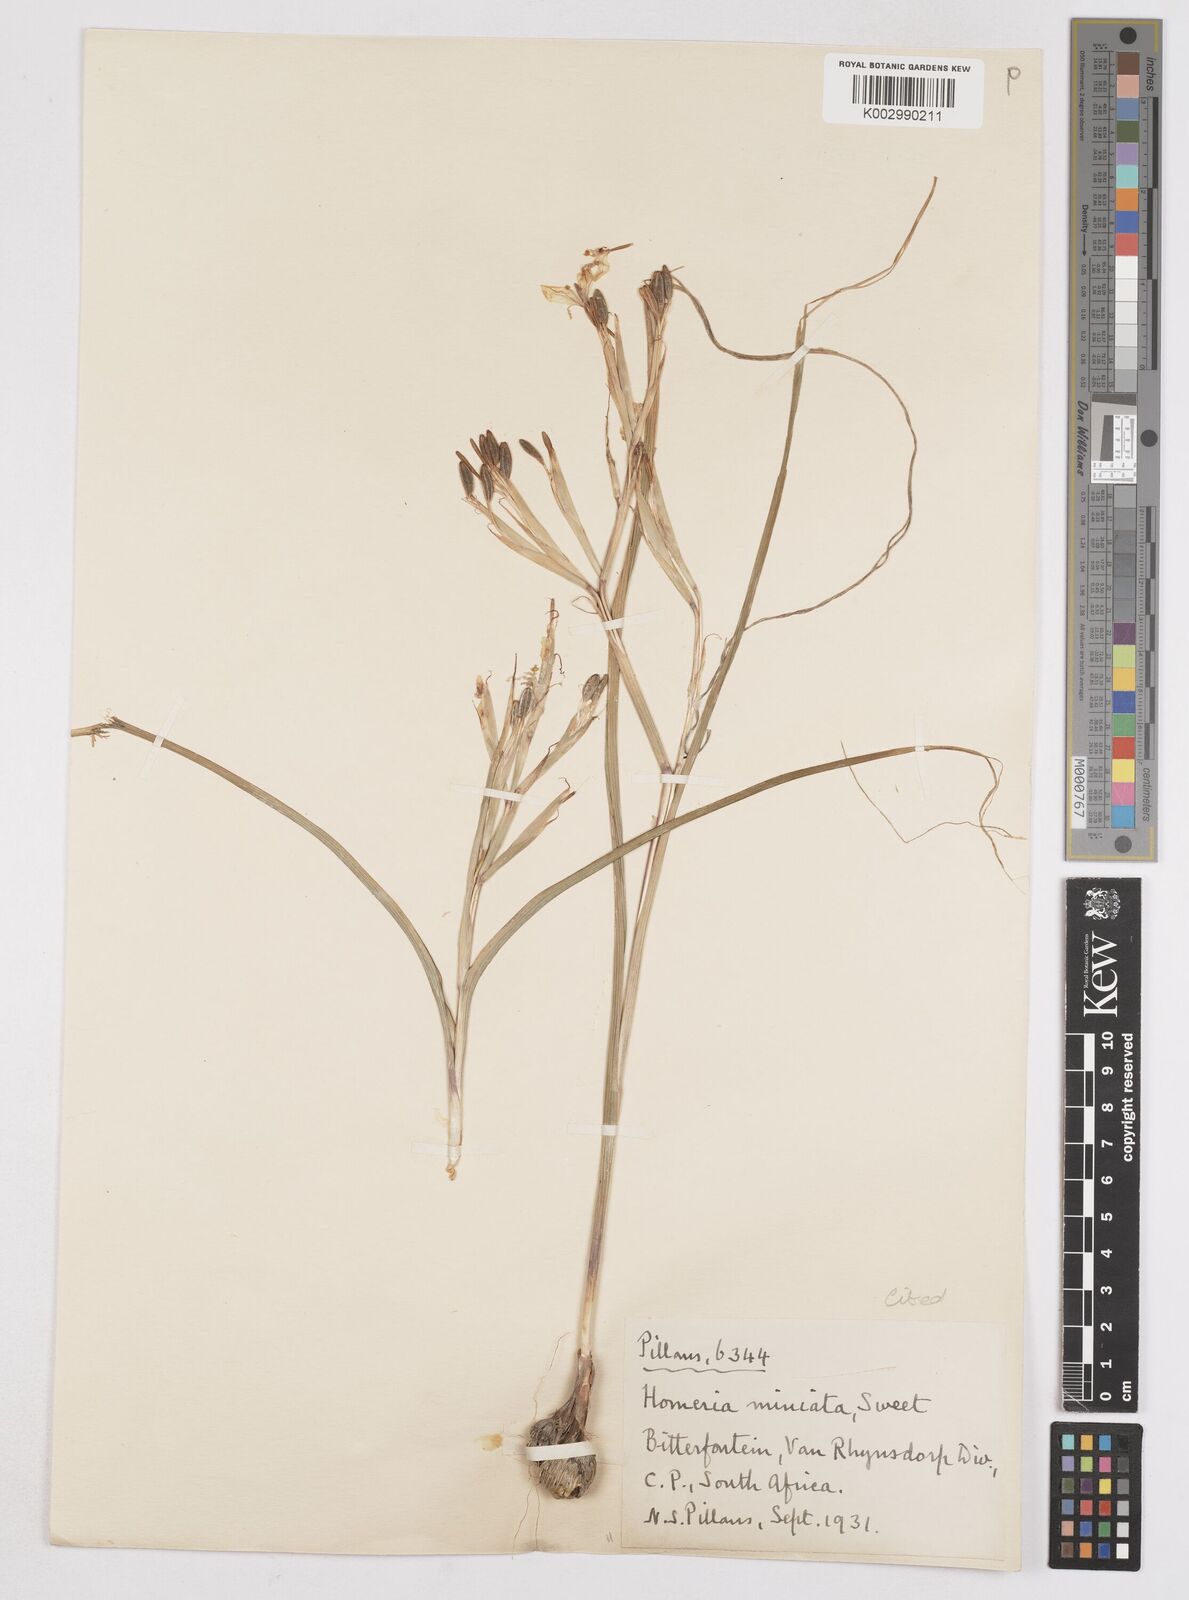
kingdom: Plantae
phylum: Tracheophyta
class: Liliopsida
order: Asparagales
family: Iridaceae
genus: Moraea
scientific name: Moraea miniata
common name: Two-leaf cape-tulip
